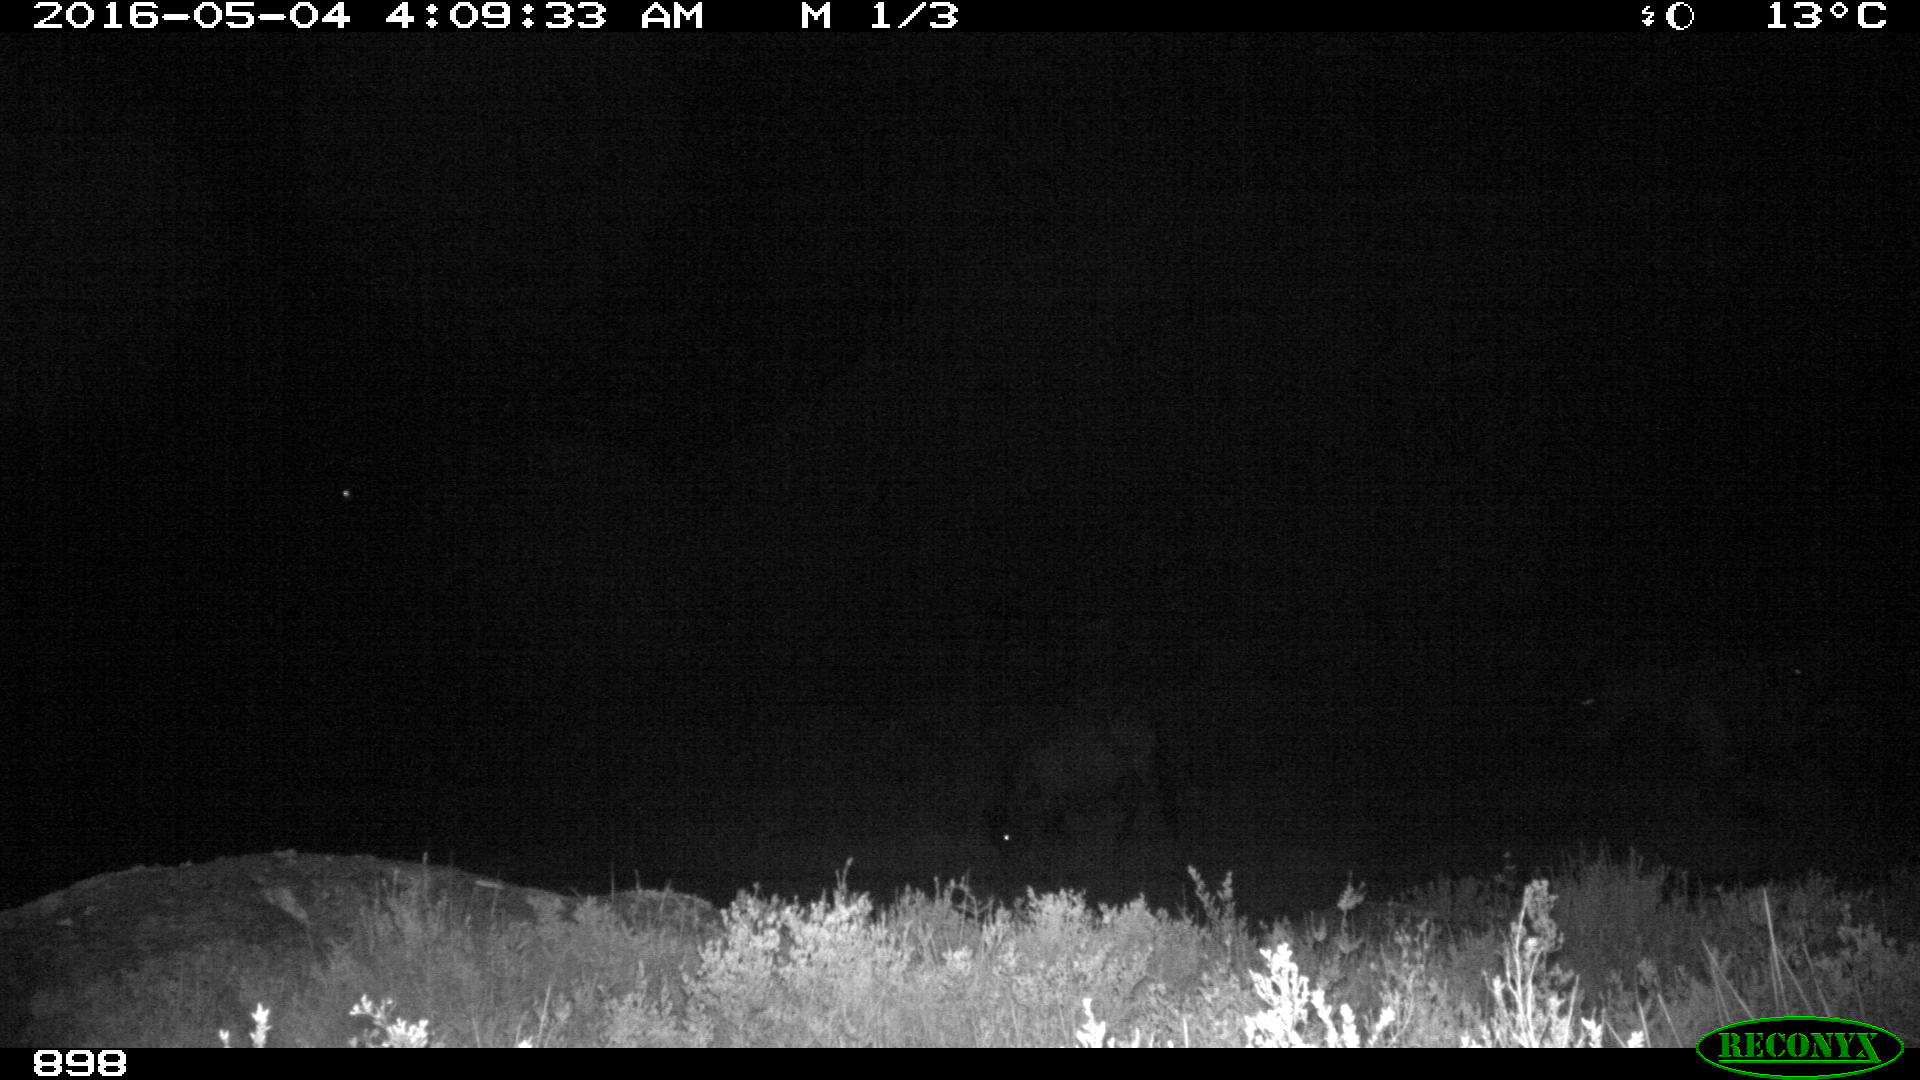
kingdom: Animalia
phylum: Chordata
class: Mammalia
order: Perissodactyla
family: Equidae
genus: Equus
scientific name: Equus caballus
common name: Horse
